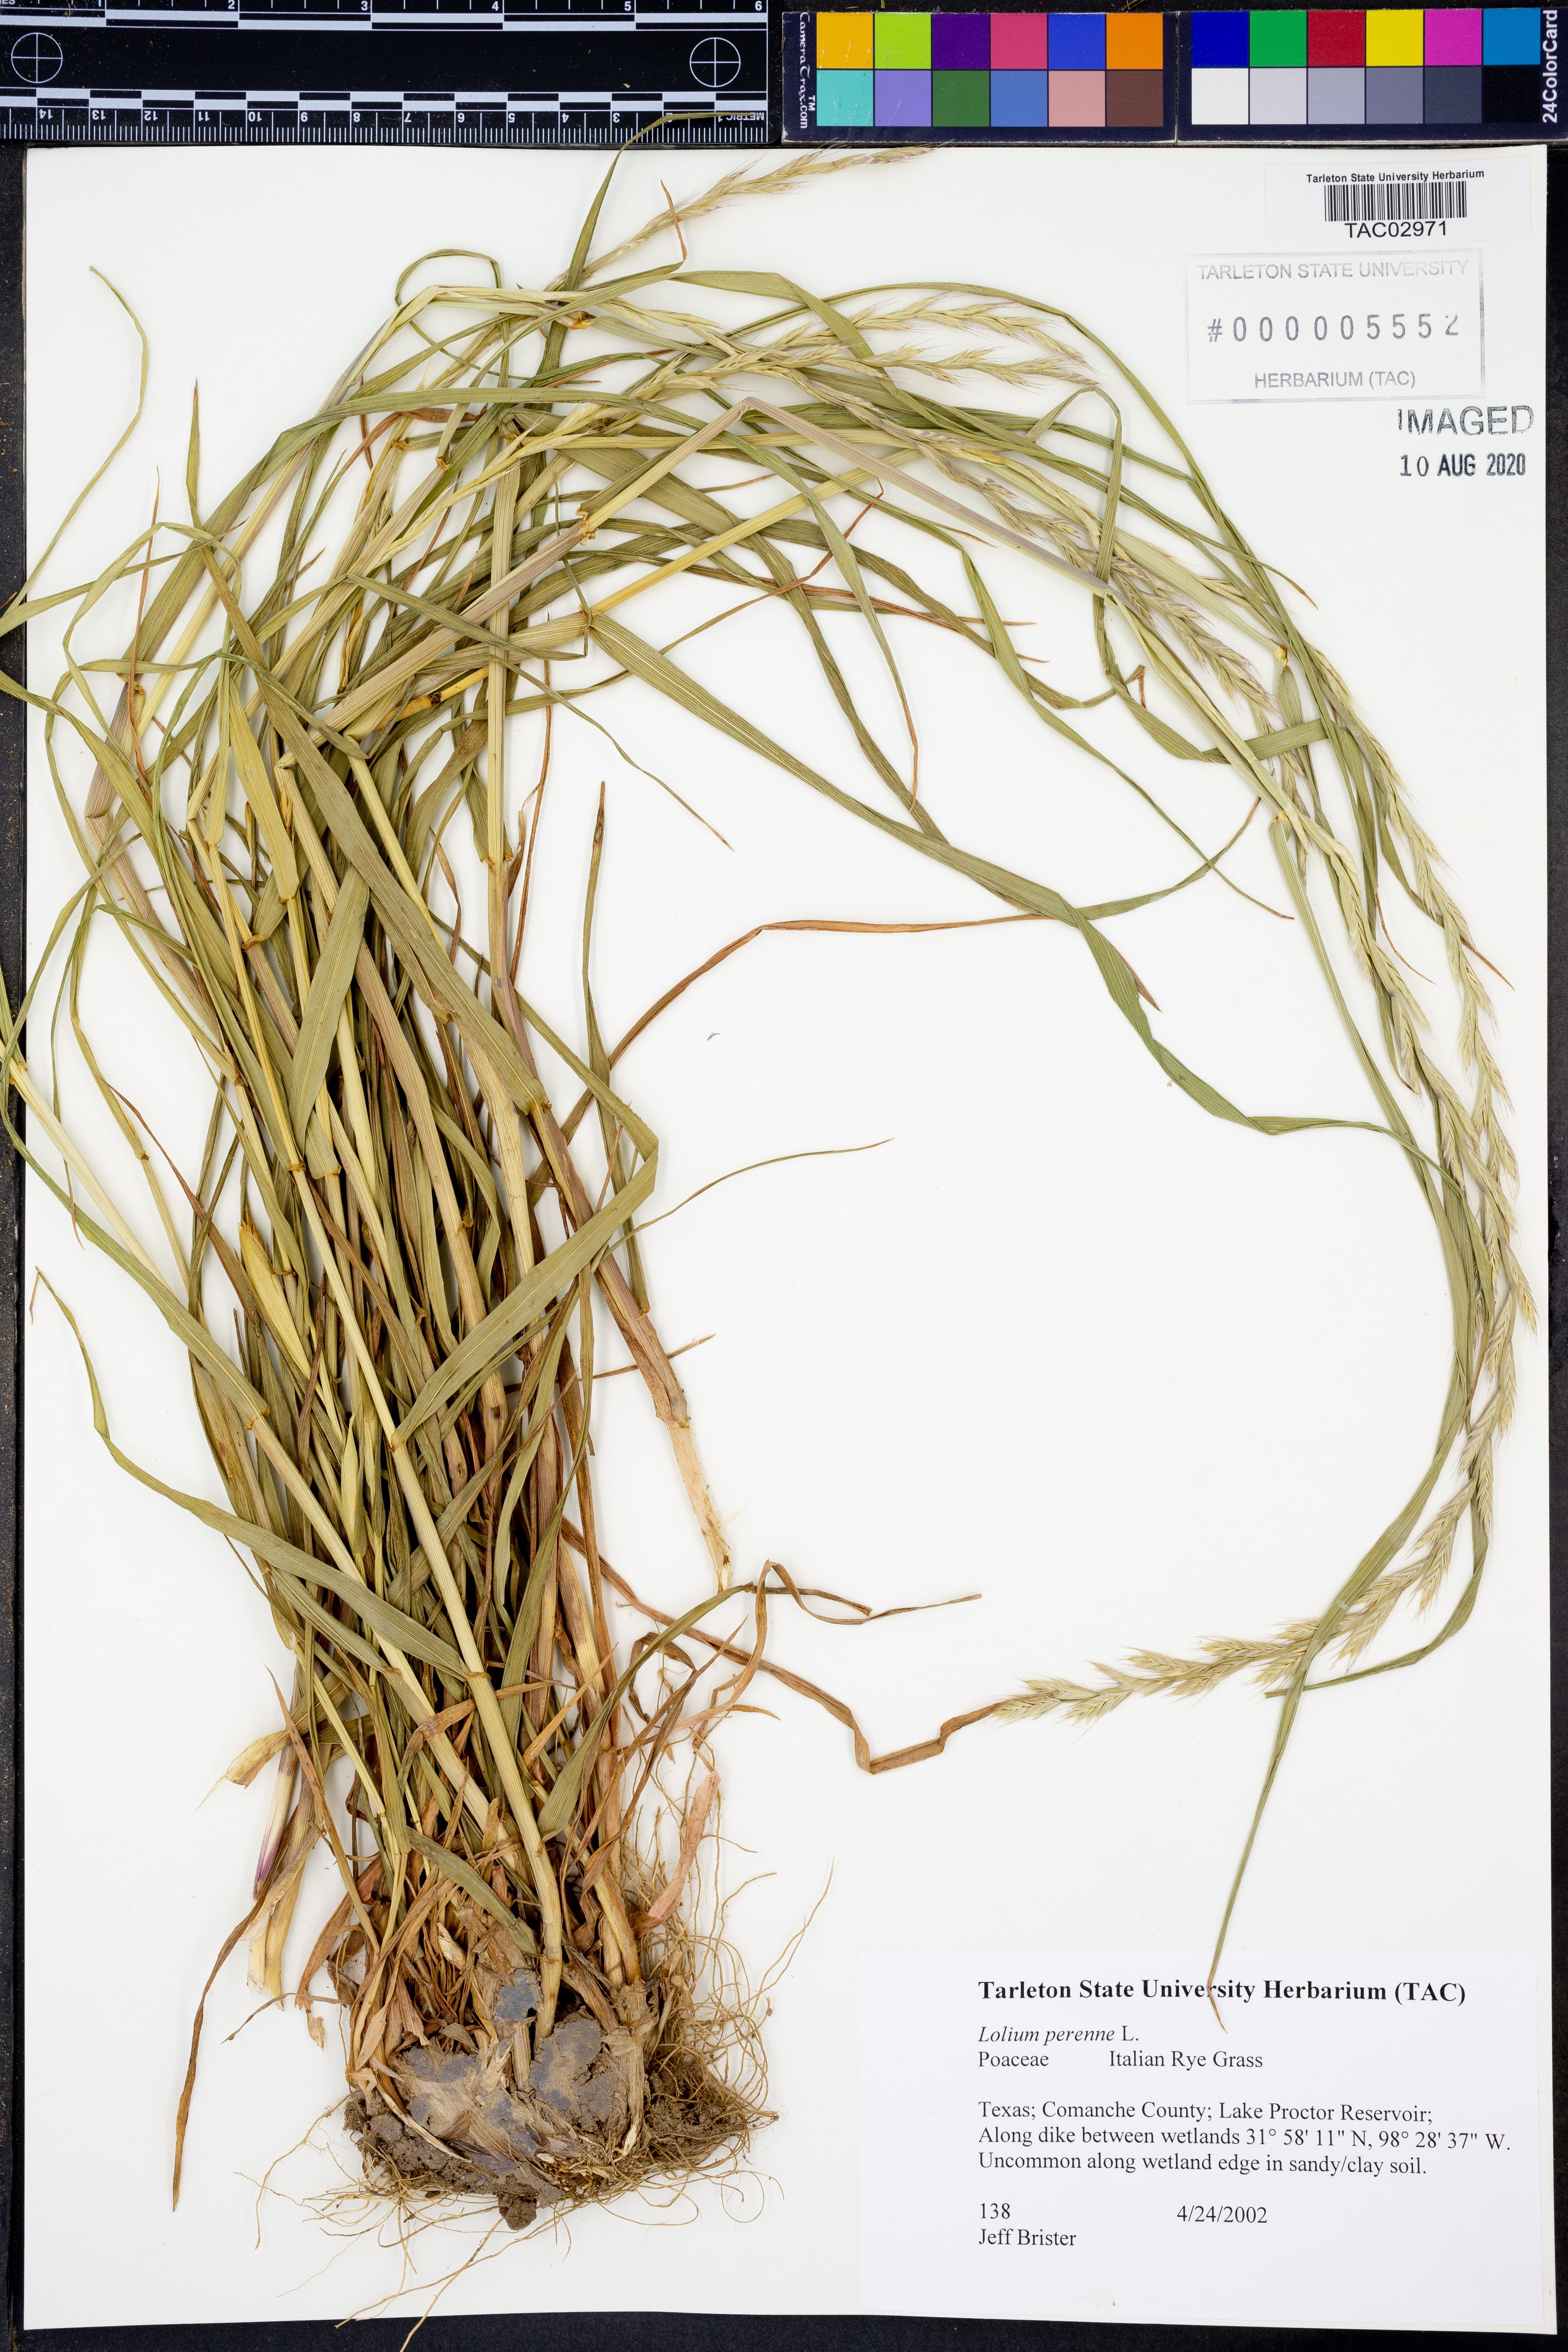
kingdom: Plantae
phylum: Tracheophyta
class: Liliopsida
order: Poales
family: Poaceae
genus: Lolium
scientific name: Lolium perenne
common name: Perennial ryegrass
